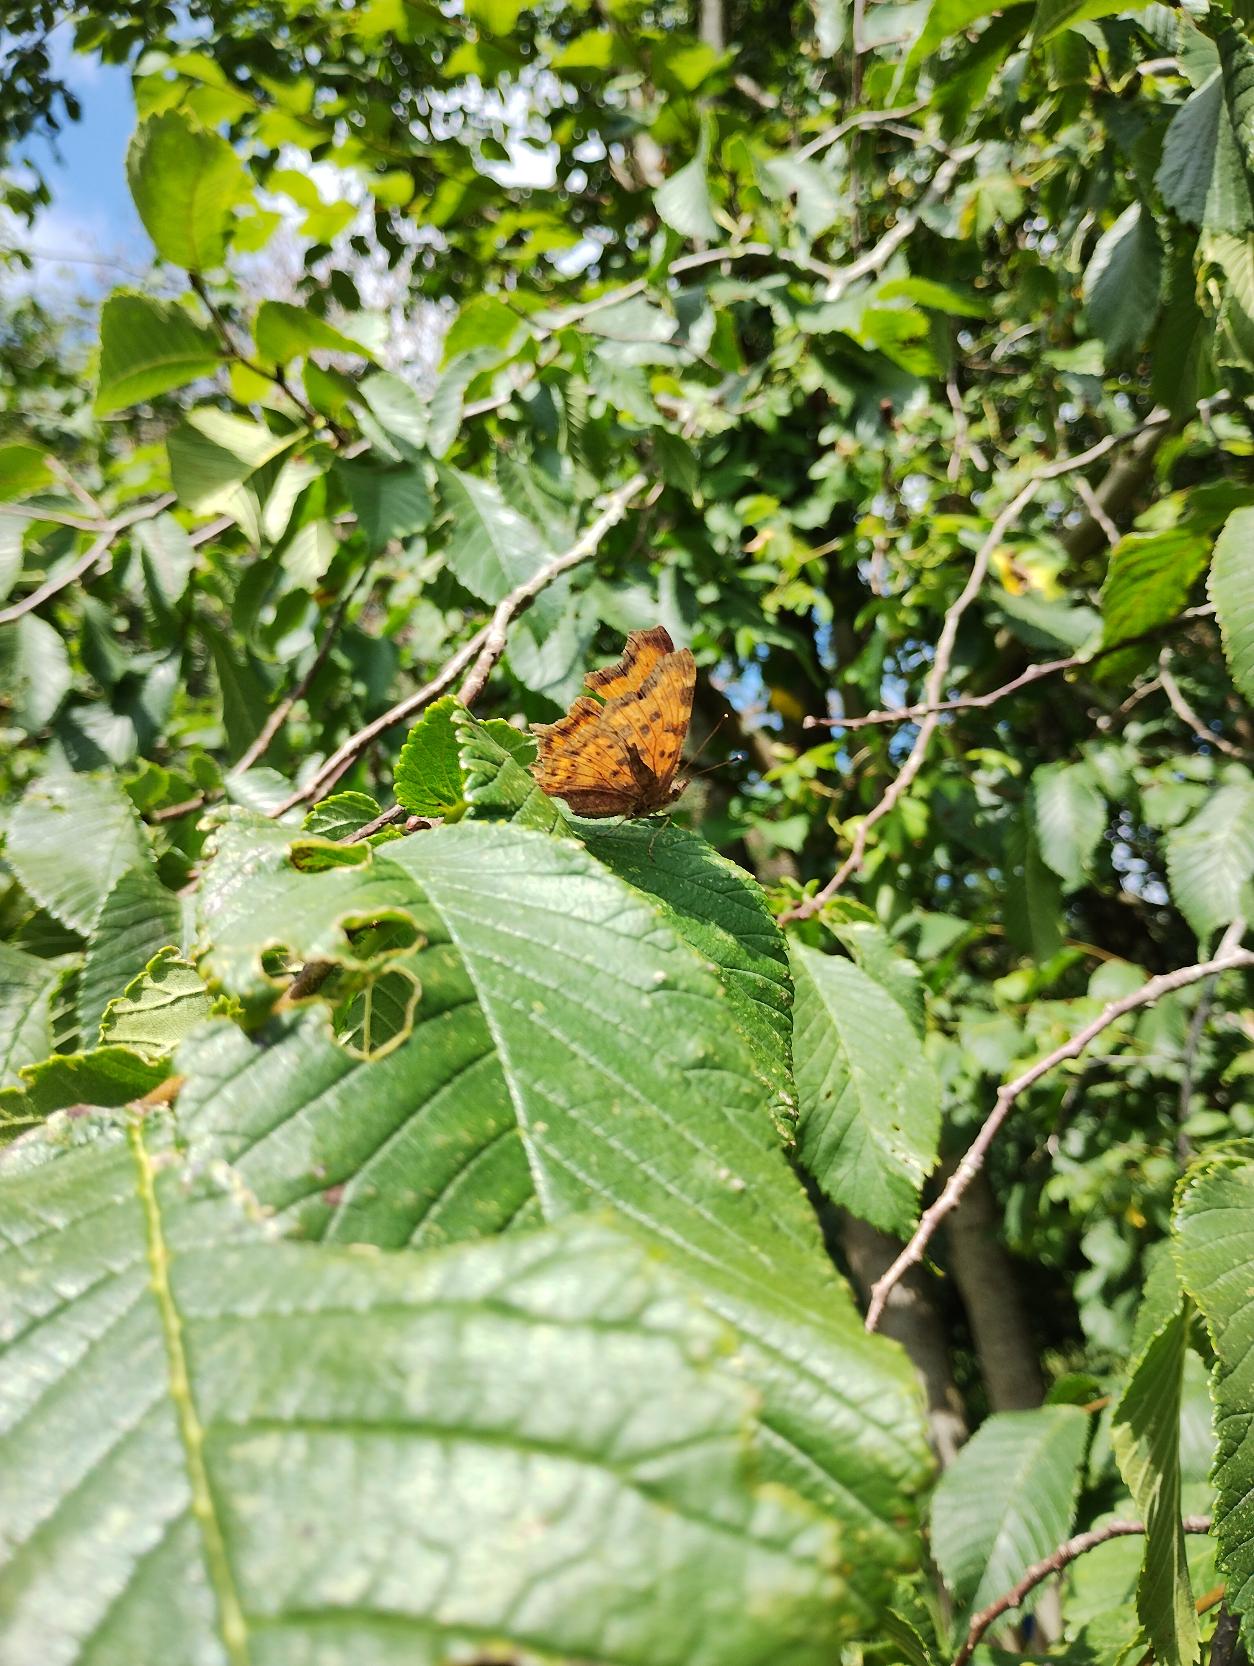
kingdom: Animalia
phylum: Arthropoda
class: Insecta
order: Lepidoptera
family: Nymphalidae
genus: Polygonia
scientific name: Polygonia c-album
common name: Det hvide C
